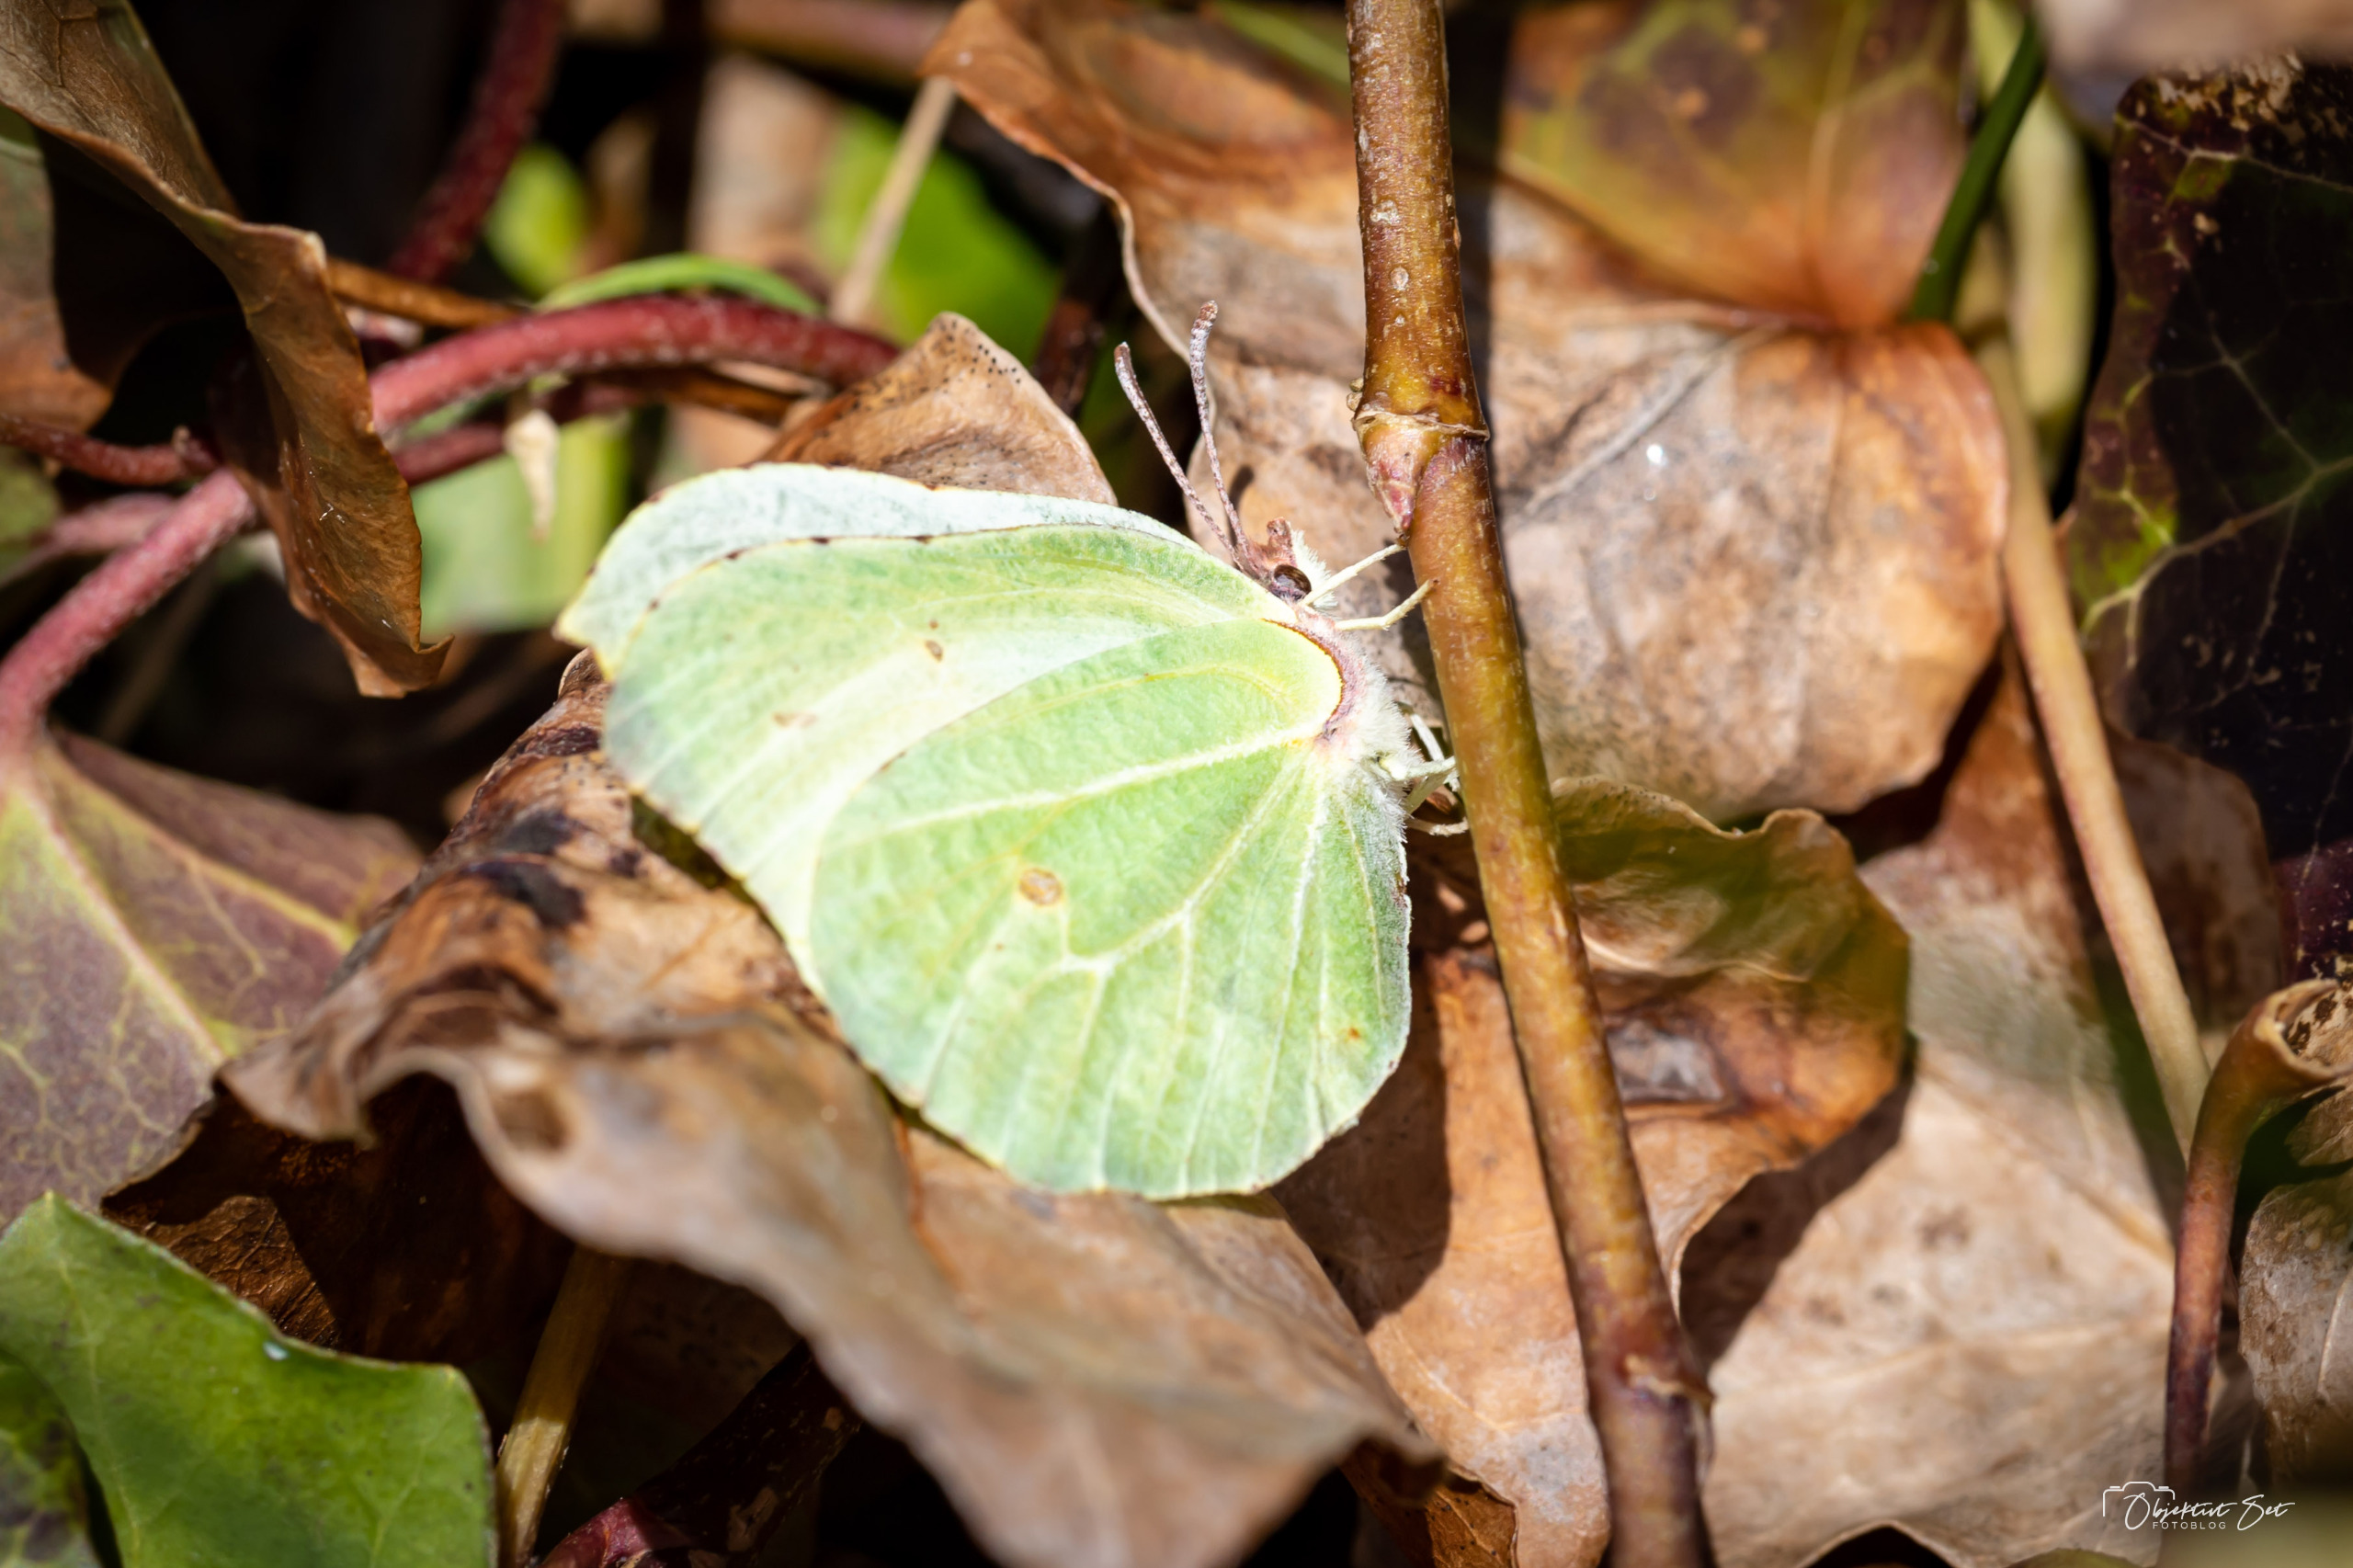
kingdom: Animalia
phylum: Arthropoda
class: Insecta
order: Lepidoptera
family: Pieridae
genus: Gonepteryx
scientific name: Gonepteryx rhamni
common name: Citronsommerfugl
